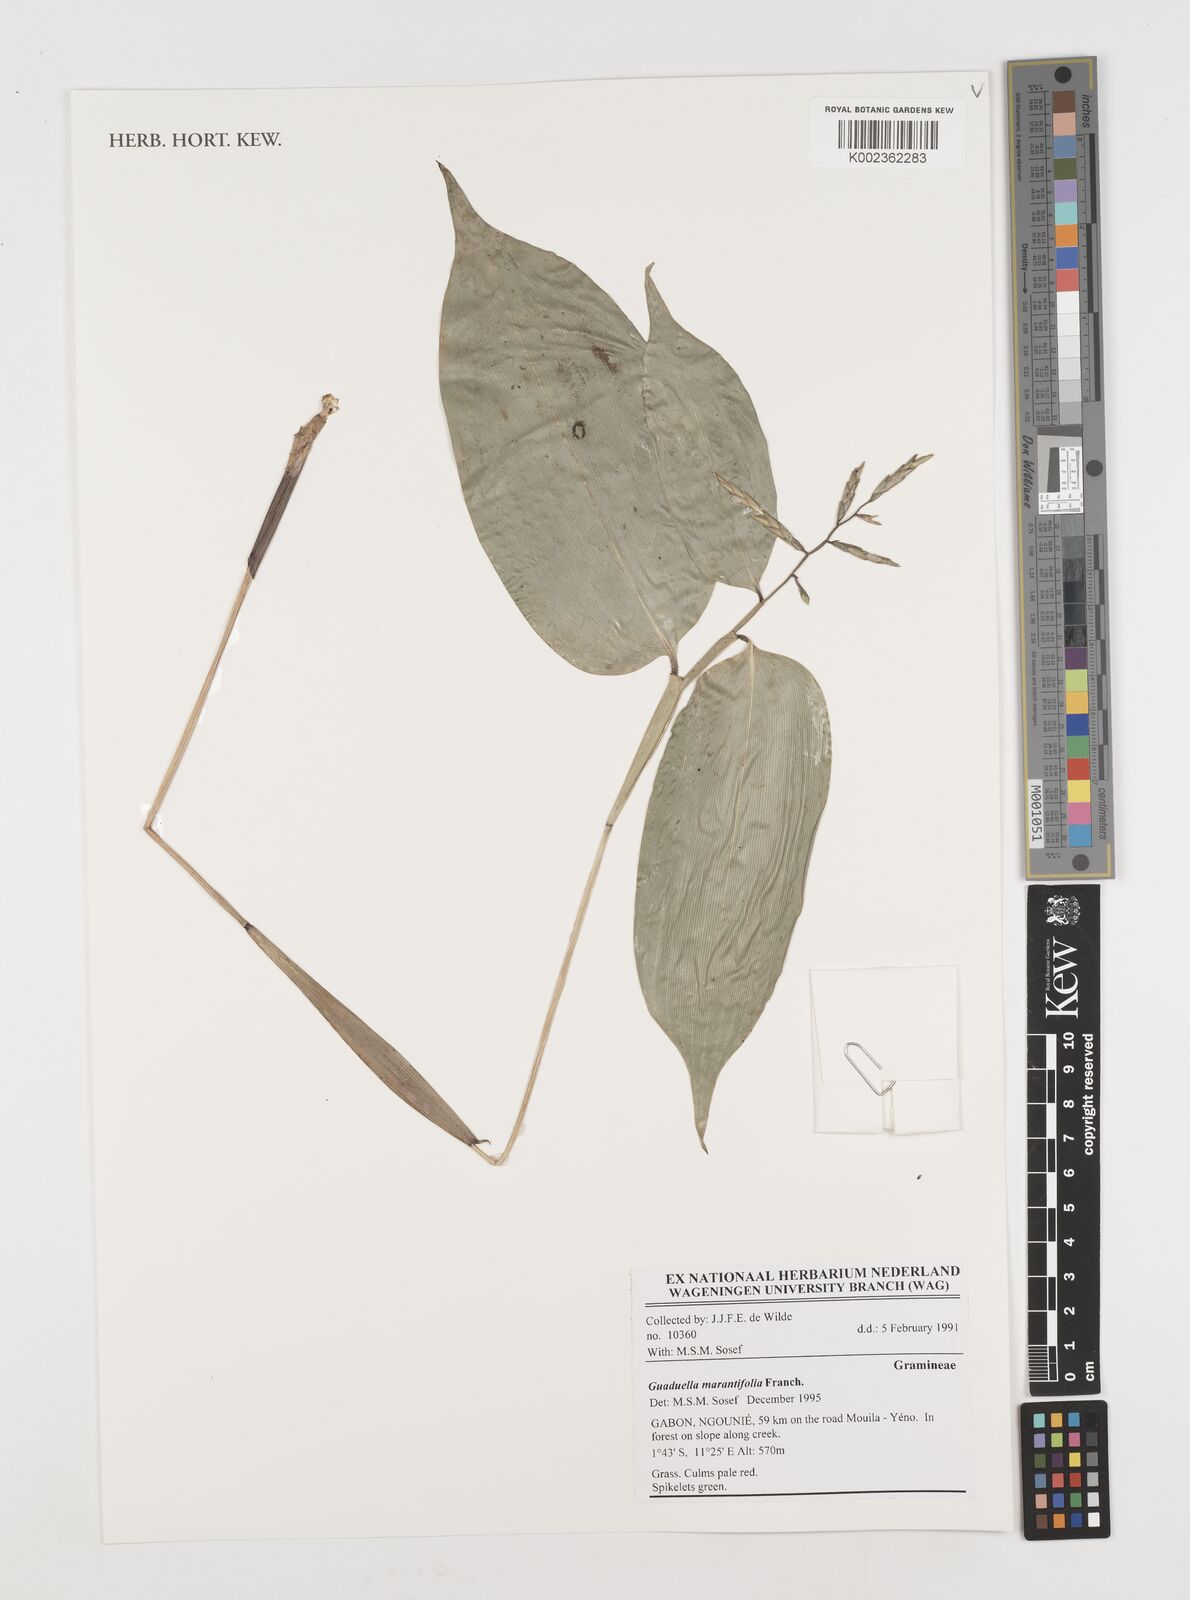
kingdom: Plantae
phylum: Tracheophyta
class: Liliopsida
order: Poales
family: Poaceae
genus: Guaduella
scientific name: Guaduella marantifolia
